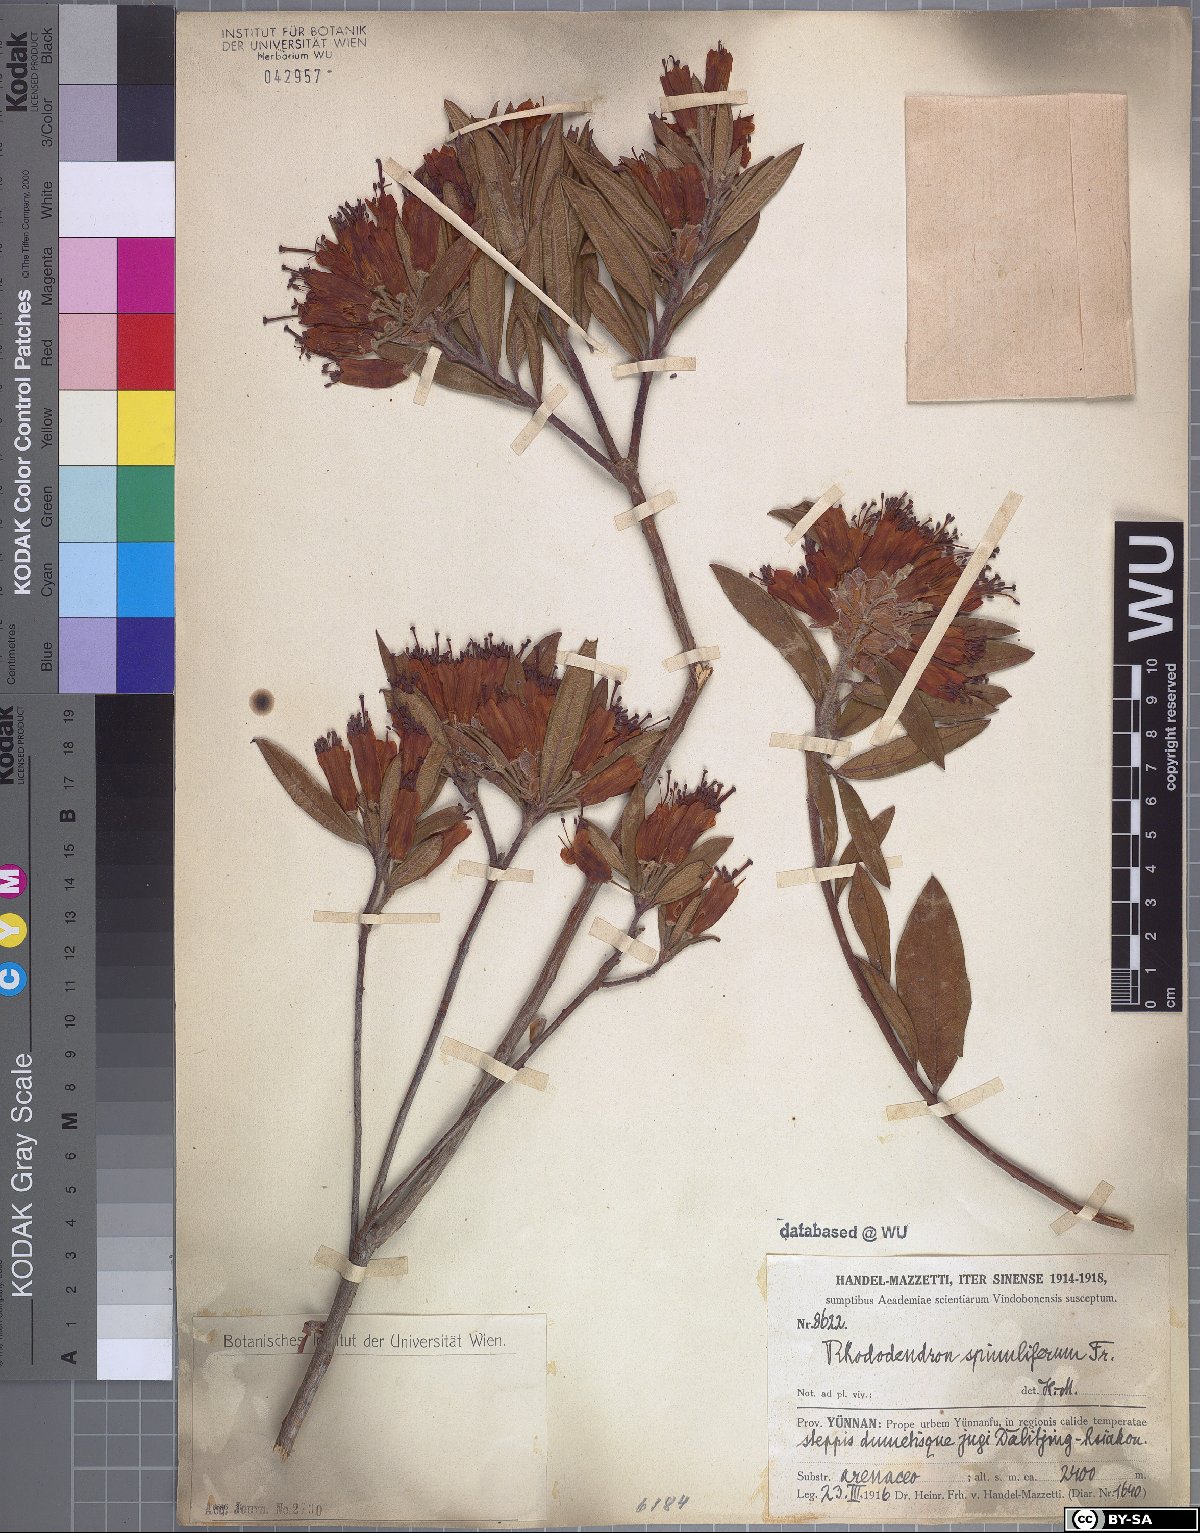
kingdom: Plantae
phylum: Tracheophyta
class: Magnoliopsida
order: Ericales
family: Ericaceae
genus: Rhododendron
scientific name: Rhododendron spinuliferum
